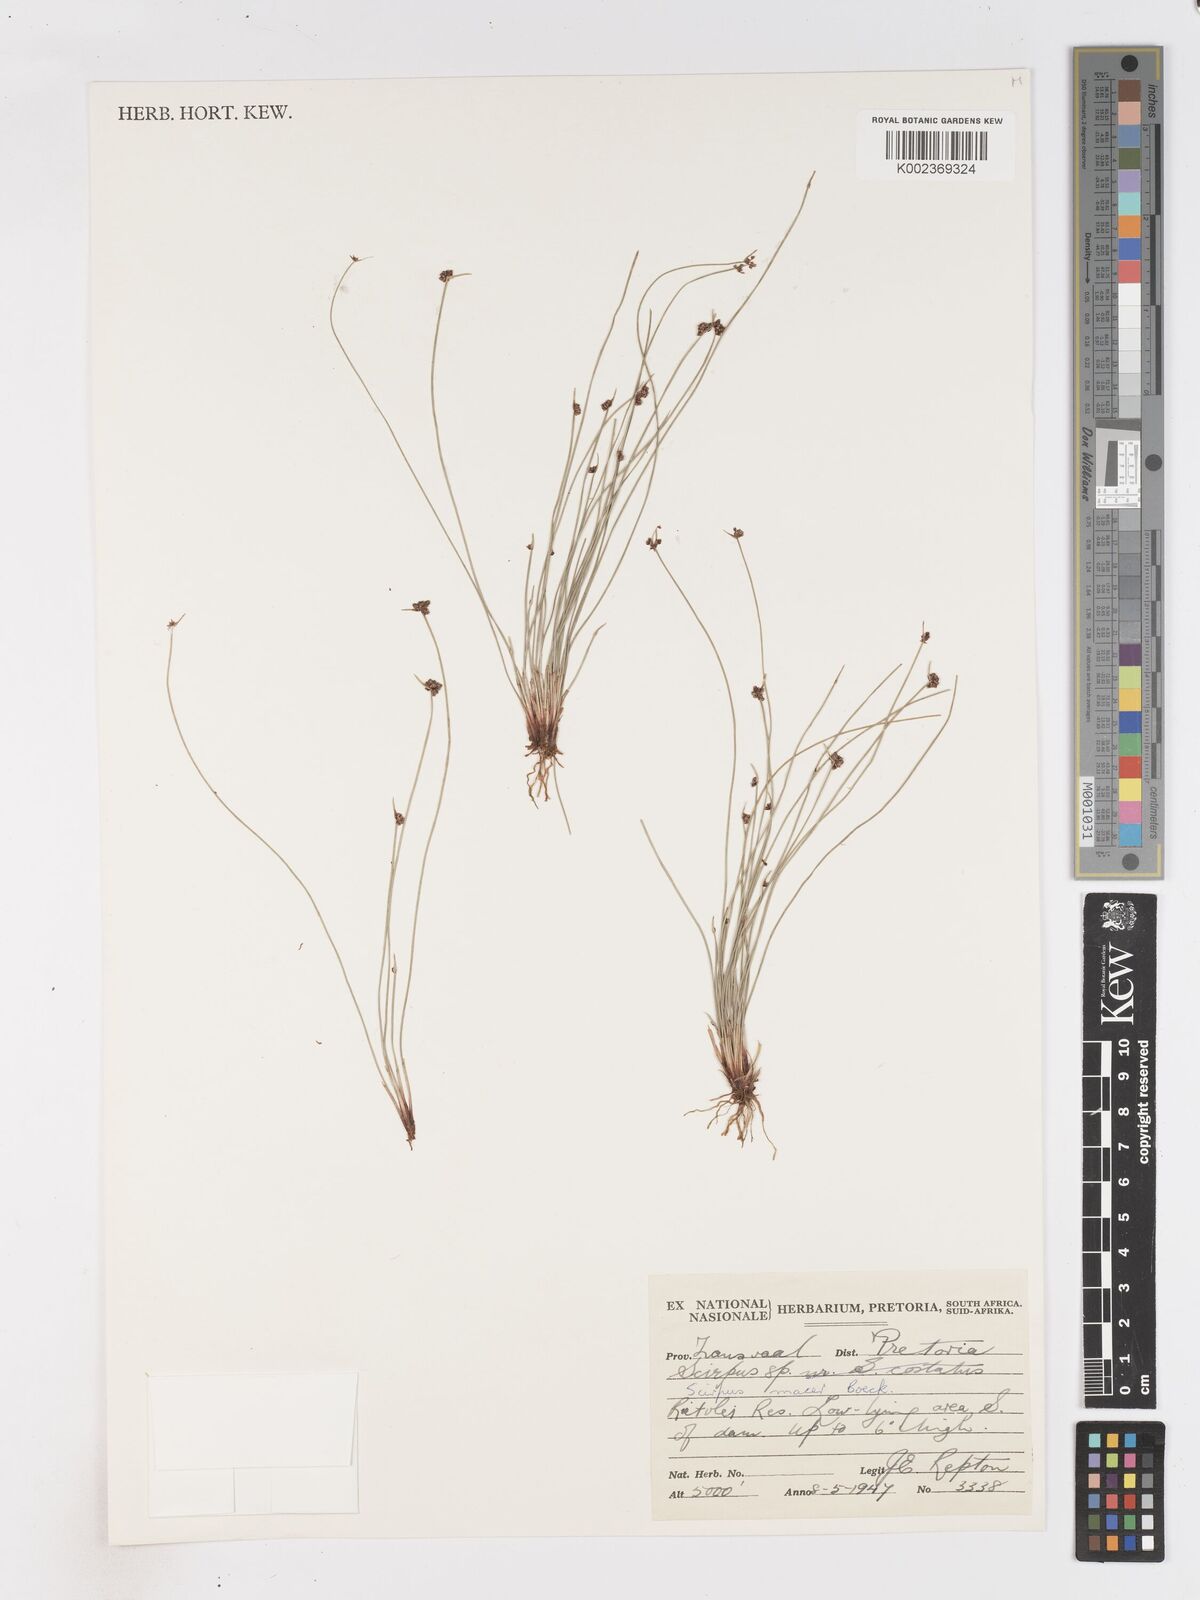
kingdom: Plantae
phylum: Tracheophyta
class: Liliopsida
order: Poales
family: Cyperaceae
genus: Isolepis
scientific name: Isolepis costata
